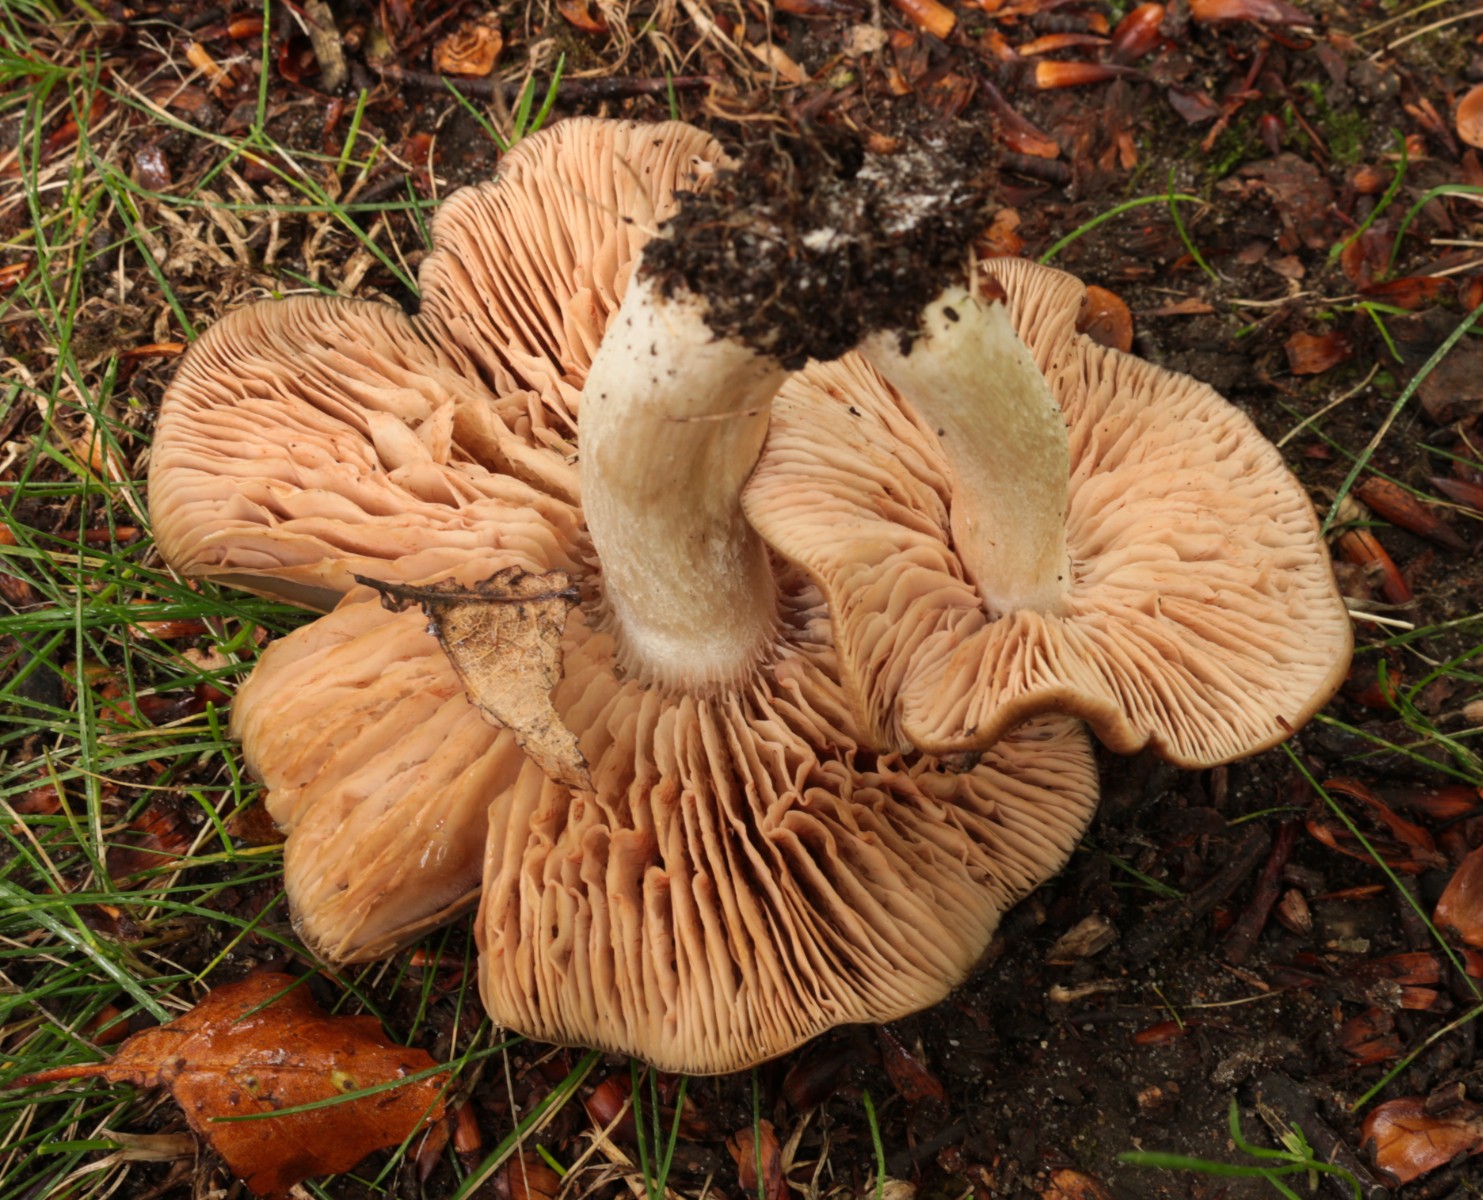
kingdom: Fungi
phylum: Basidiomycota
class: Agaricomycetes
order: Agaricales
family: Entolomataceae
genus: Entoloma
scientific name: Entoloma lividoalbum
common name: lysstokket rødblad
